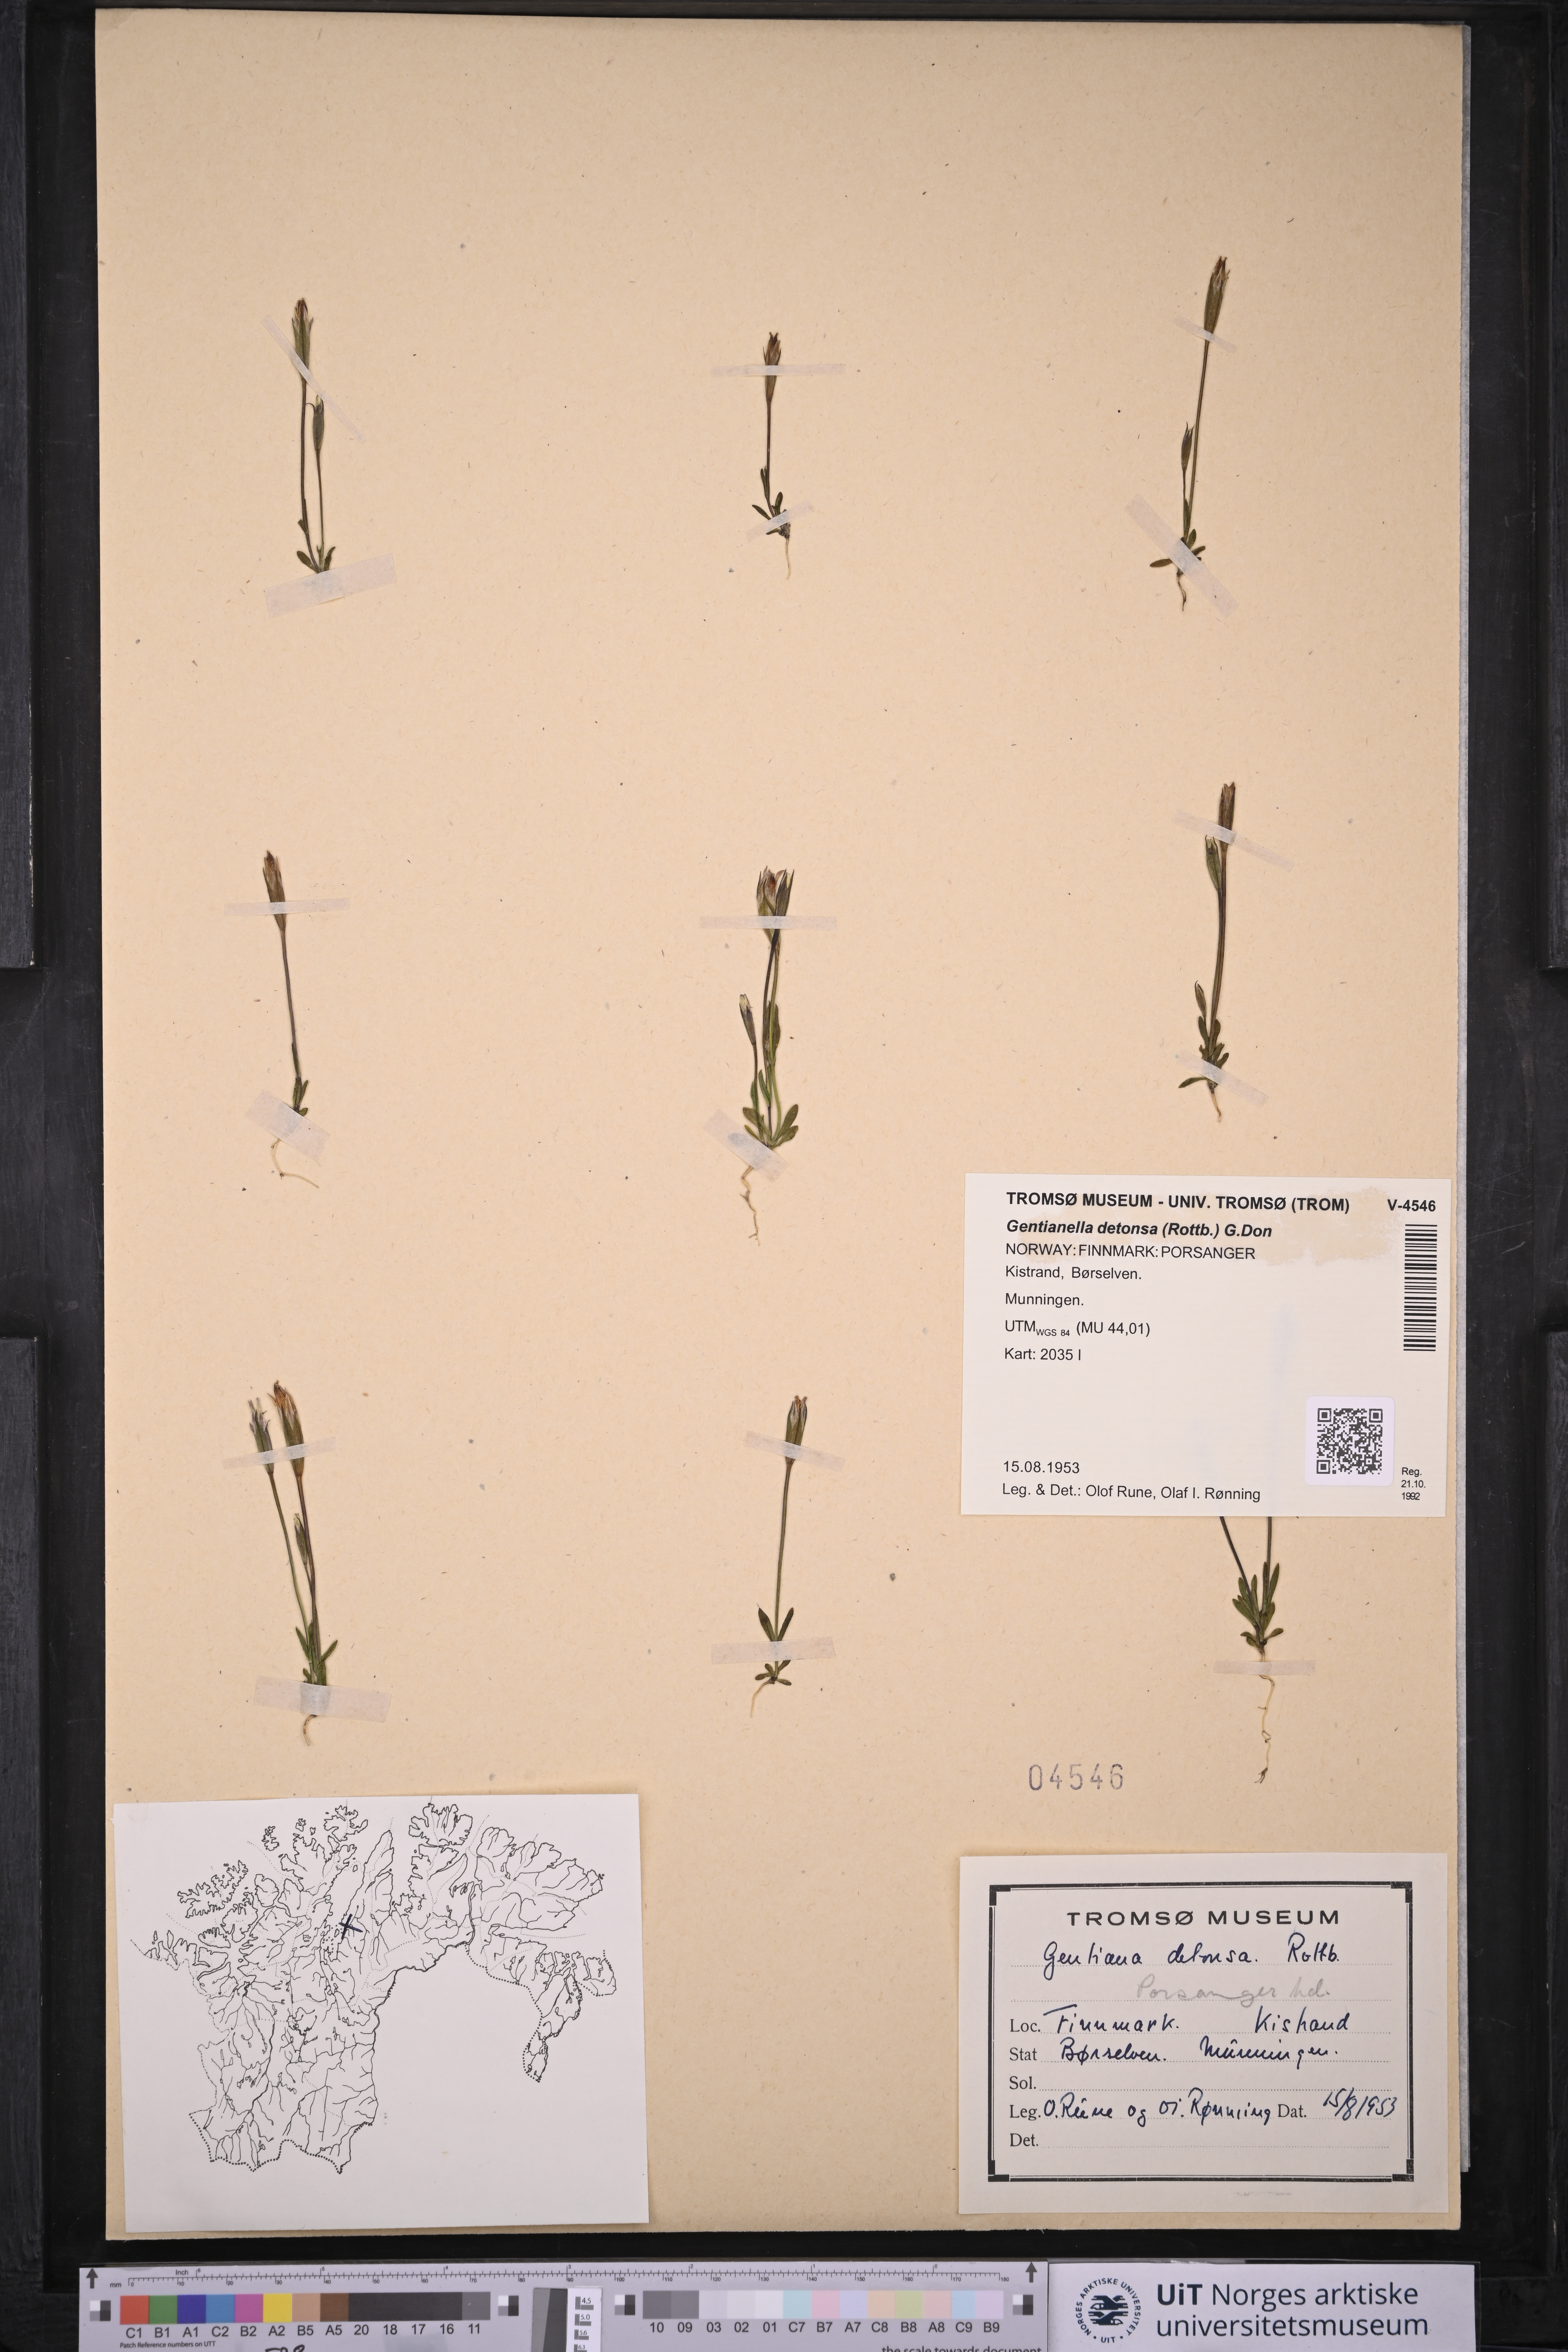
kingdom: Plantae
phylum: Tracheophyta
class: Magnoliopsida
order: Gentianales
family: Gentianaceae
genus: Gentianopsis
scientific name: Gentianopsis detonsa
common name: Fringed-gentian
